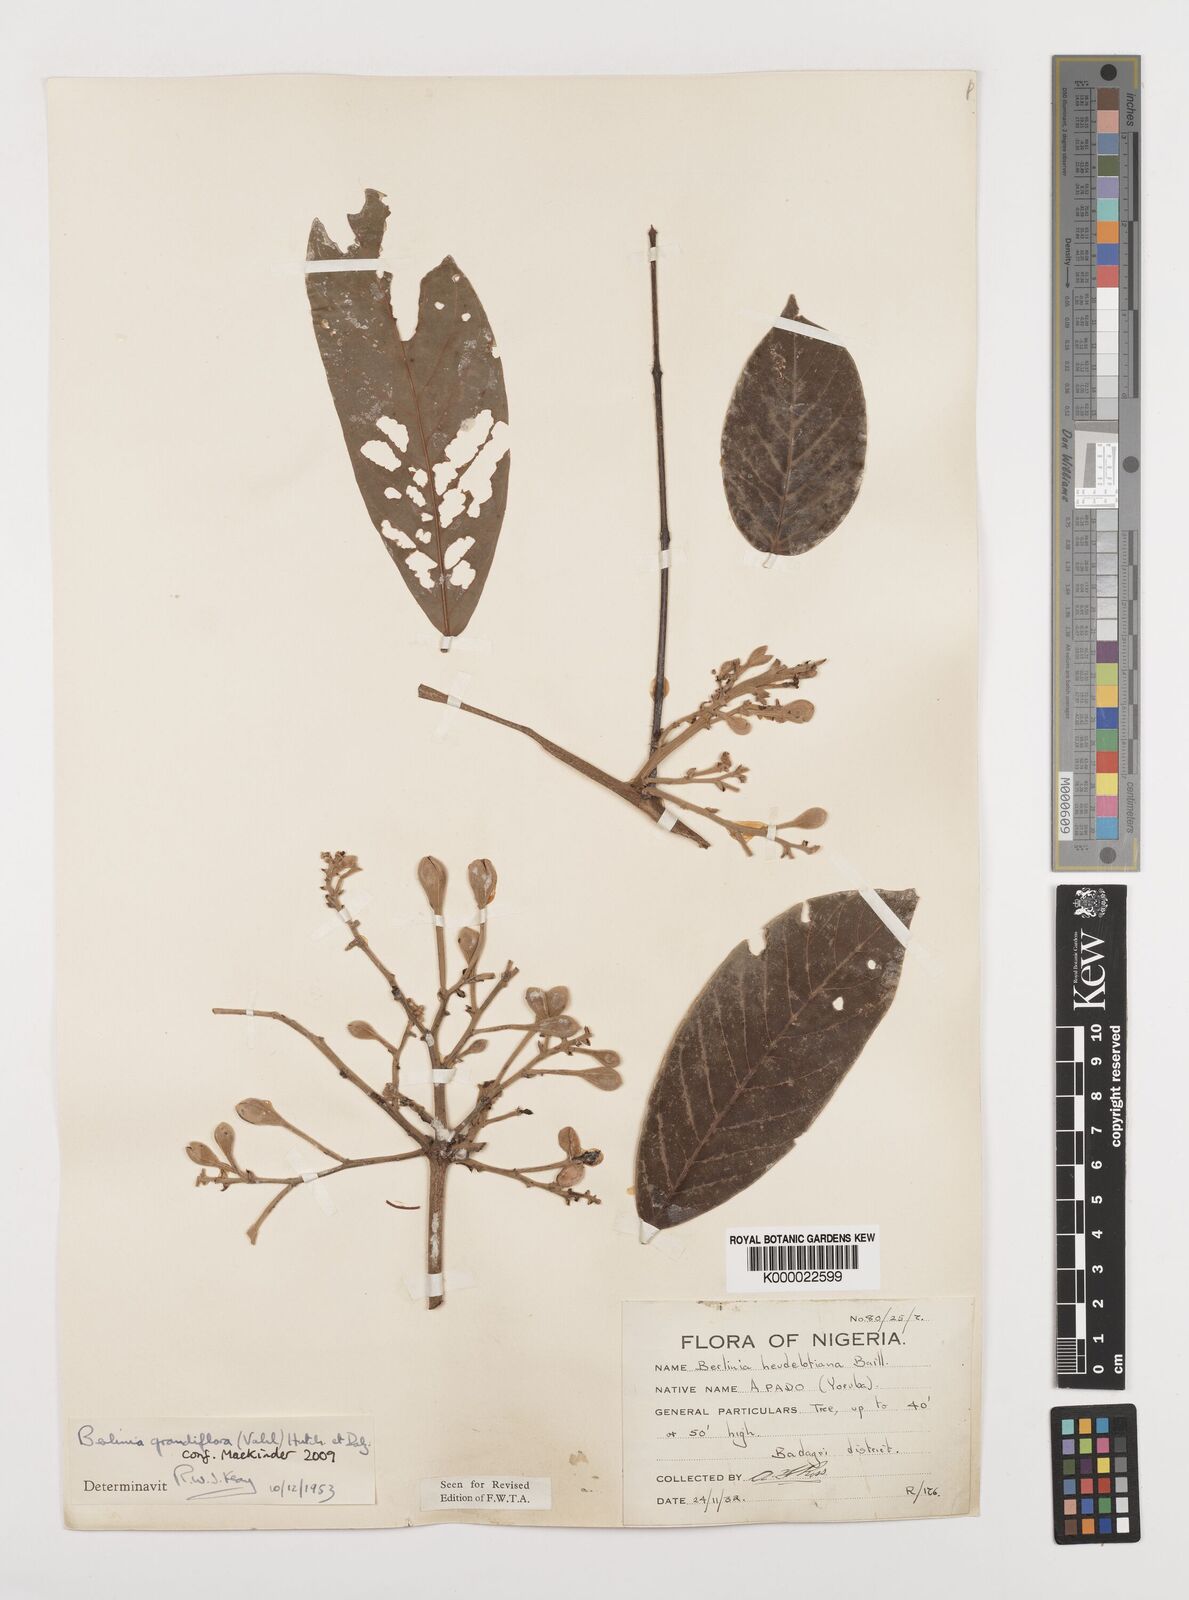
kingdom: Plantae
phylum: Tracheophyta
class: Magnoliopsida
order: Fabales
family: Fabaceae
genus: Berlinia
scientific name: Berlinia grandiflora
